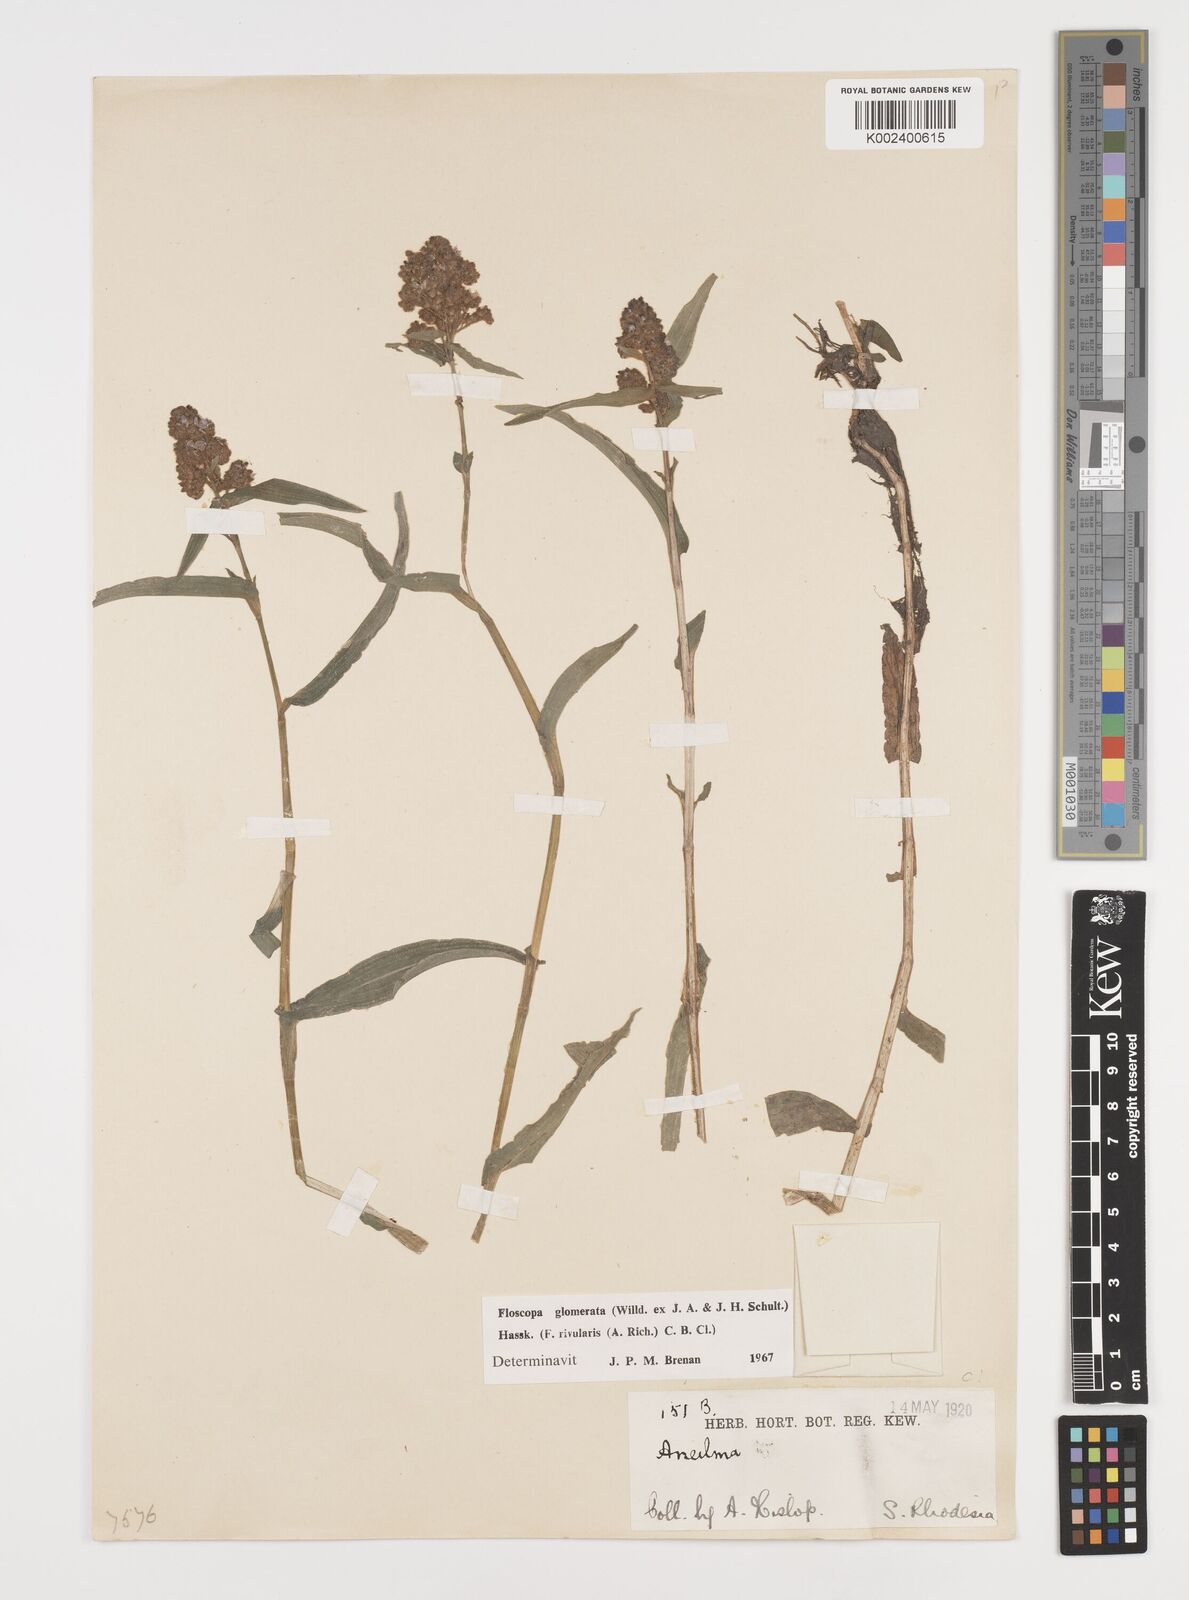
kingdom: Plantae
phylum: Tracheophyta
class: Liliopsida
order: Commelinales
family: Commelinaceae
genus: Floscopa
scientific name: Floscopa glomerata
